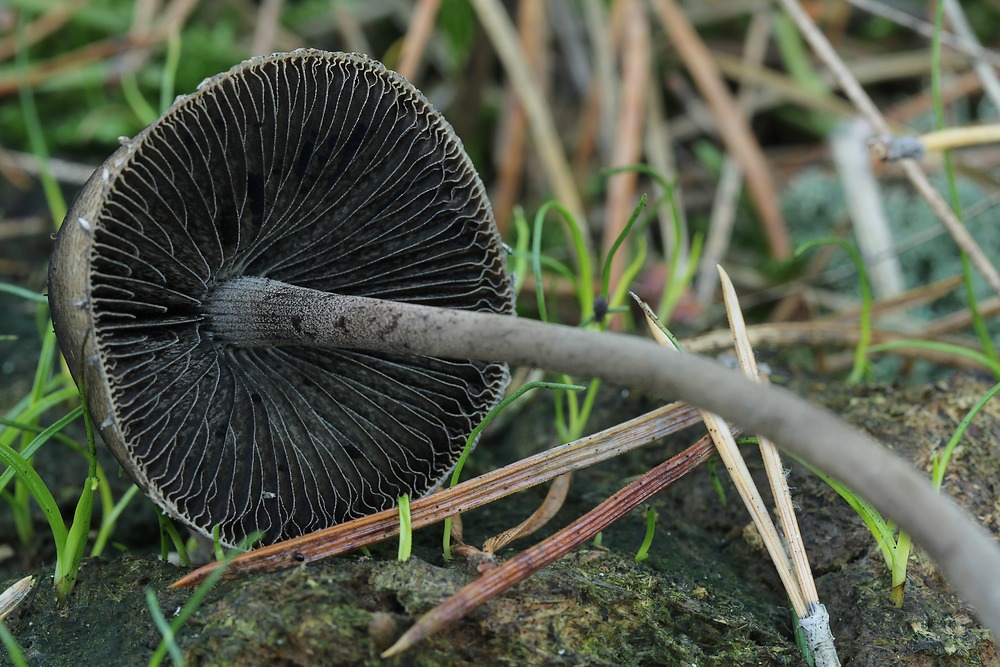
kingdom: Fungi
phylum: Basidiomycota
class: Agaricomycetes
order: Agaricales
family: Bolbitiaceae
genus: Panaeolus
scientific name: Panaeolus papilionaceus
